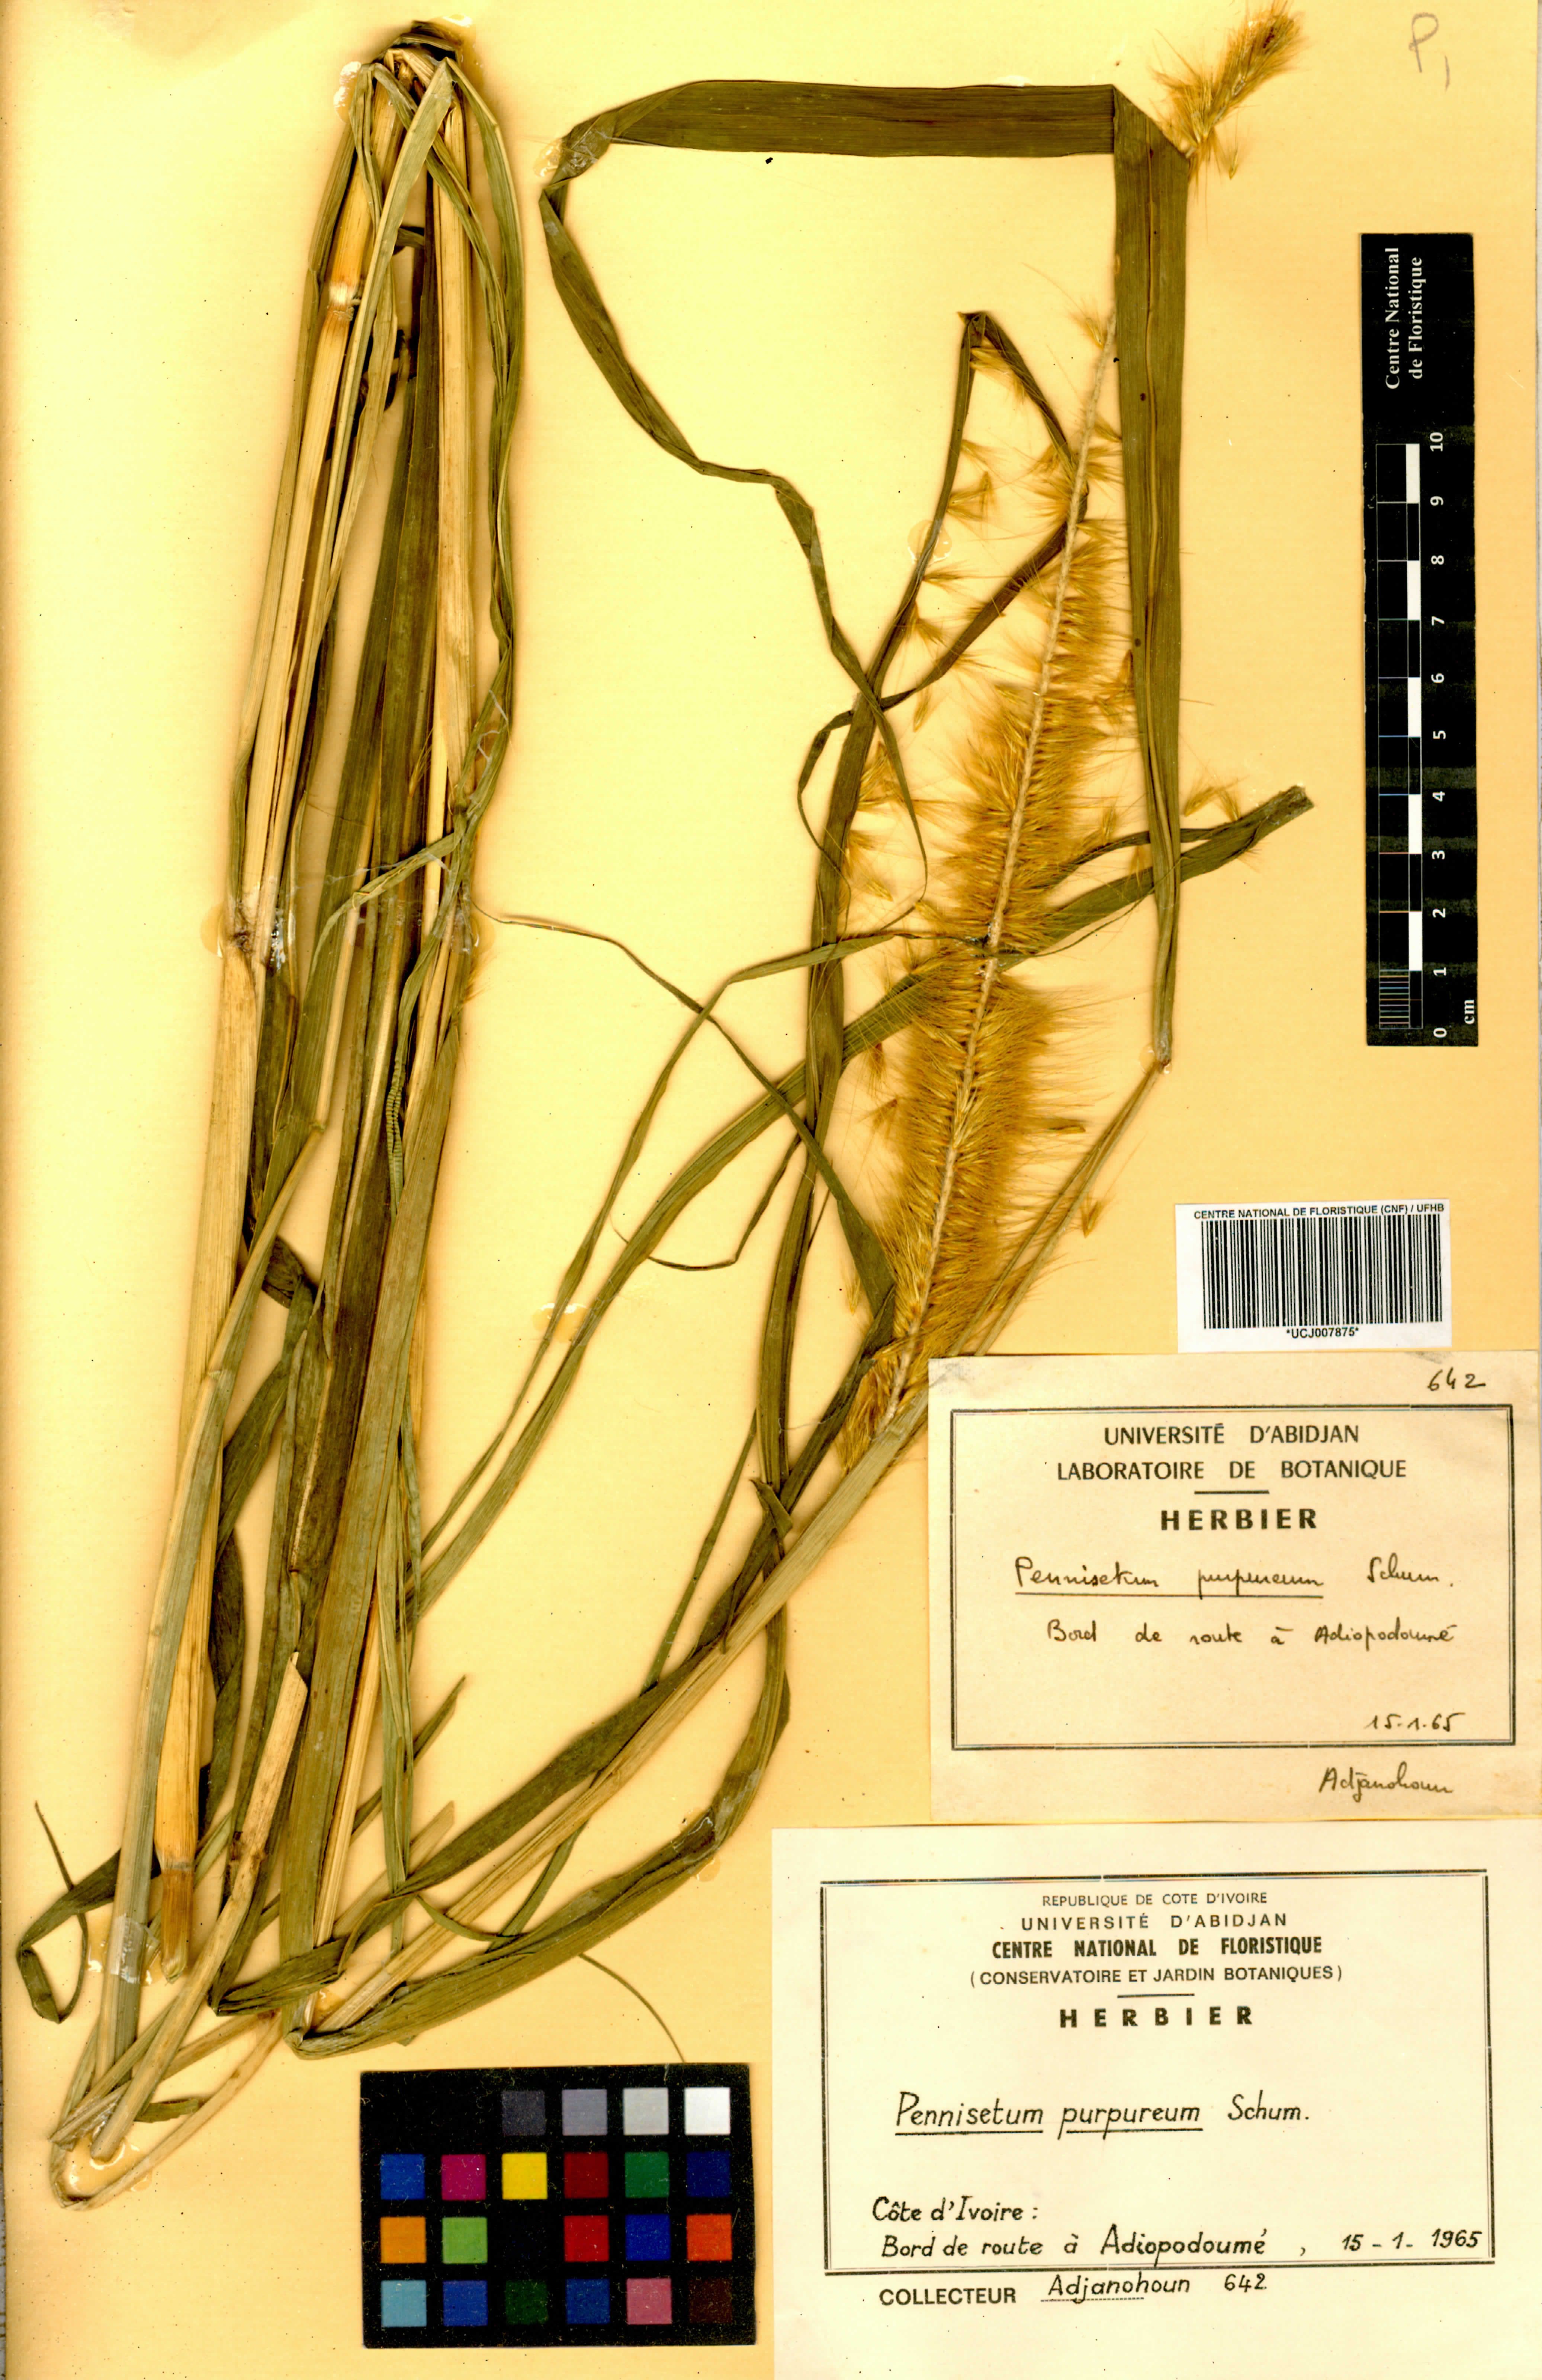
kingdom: Plantae
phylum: Tracheophyta
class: Liliopsida
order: Poales
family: Poaceae
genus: Cenchrus
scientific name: Cenchrus purpureus
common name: Elephant grass
